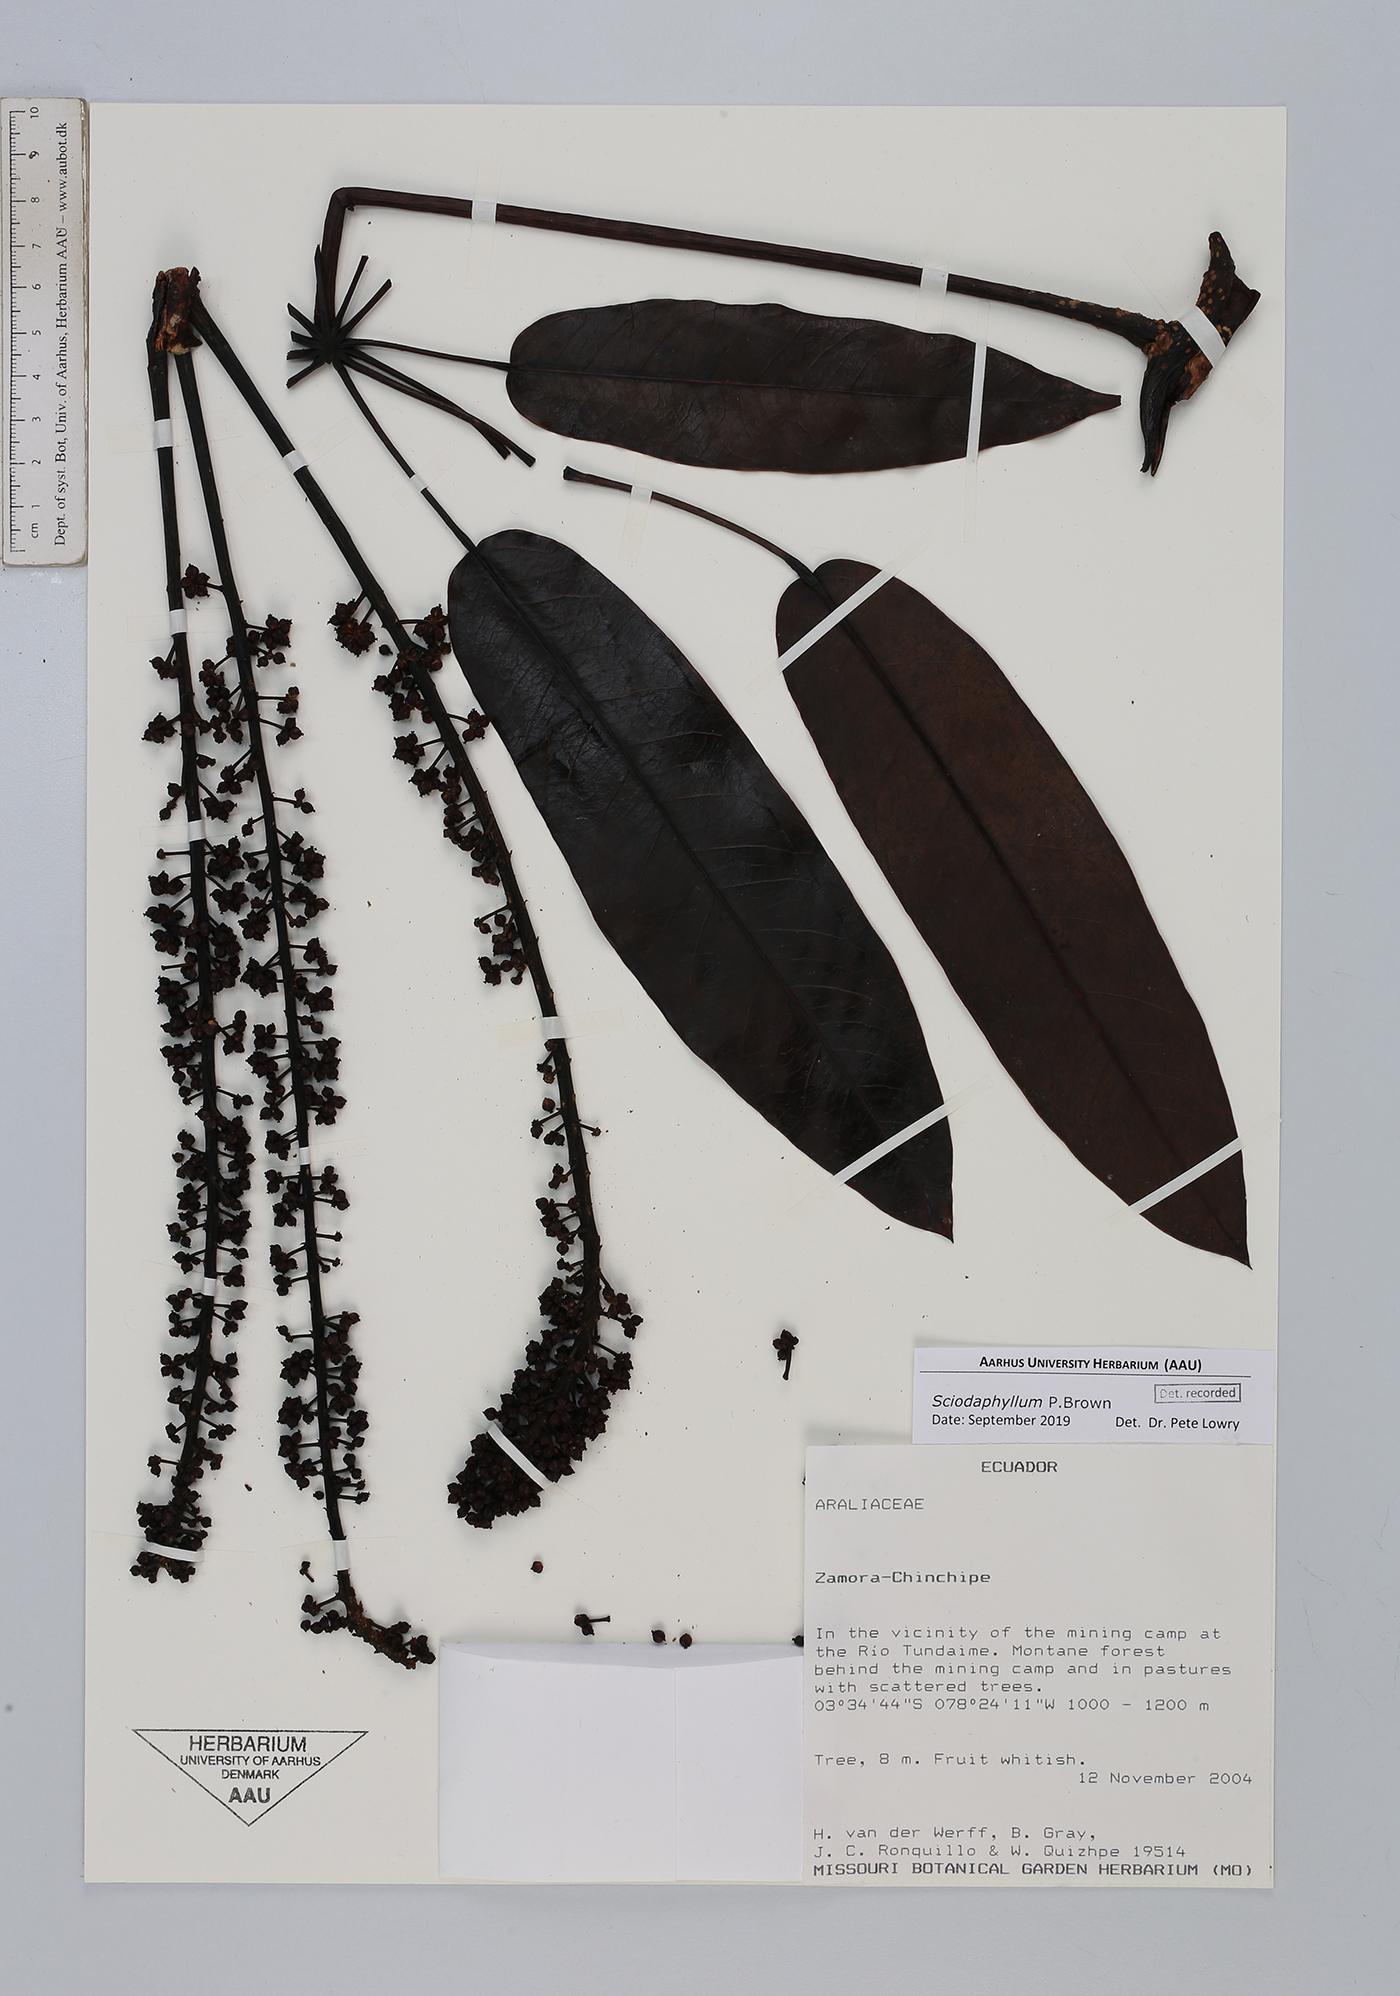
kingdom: Plantae
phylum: Tracheophyta
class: Magnoliopsida
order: Apiales
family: Araliaceae
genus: Sciodaphyllum
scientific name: Sciodaphyllum
